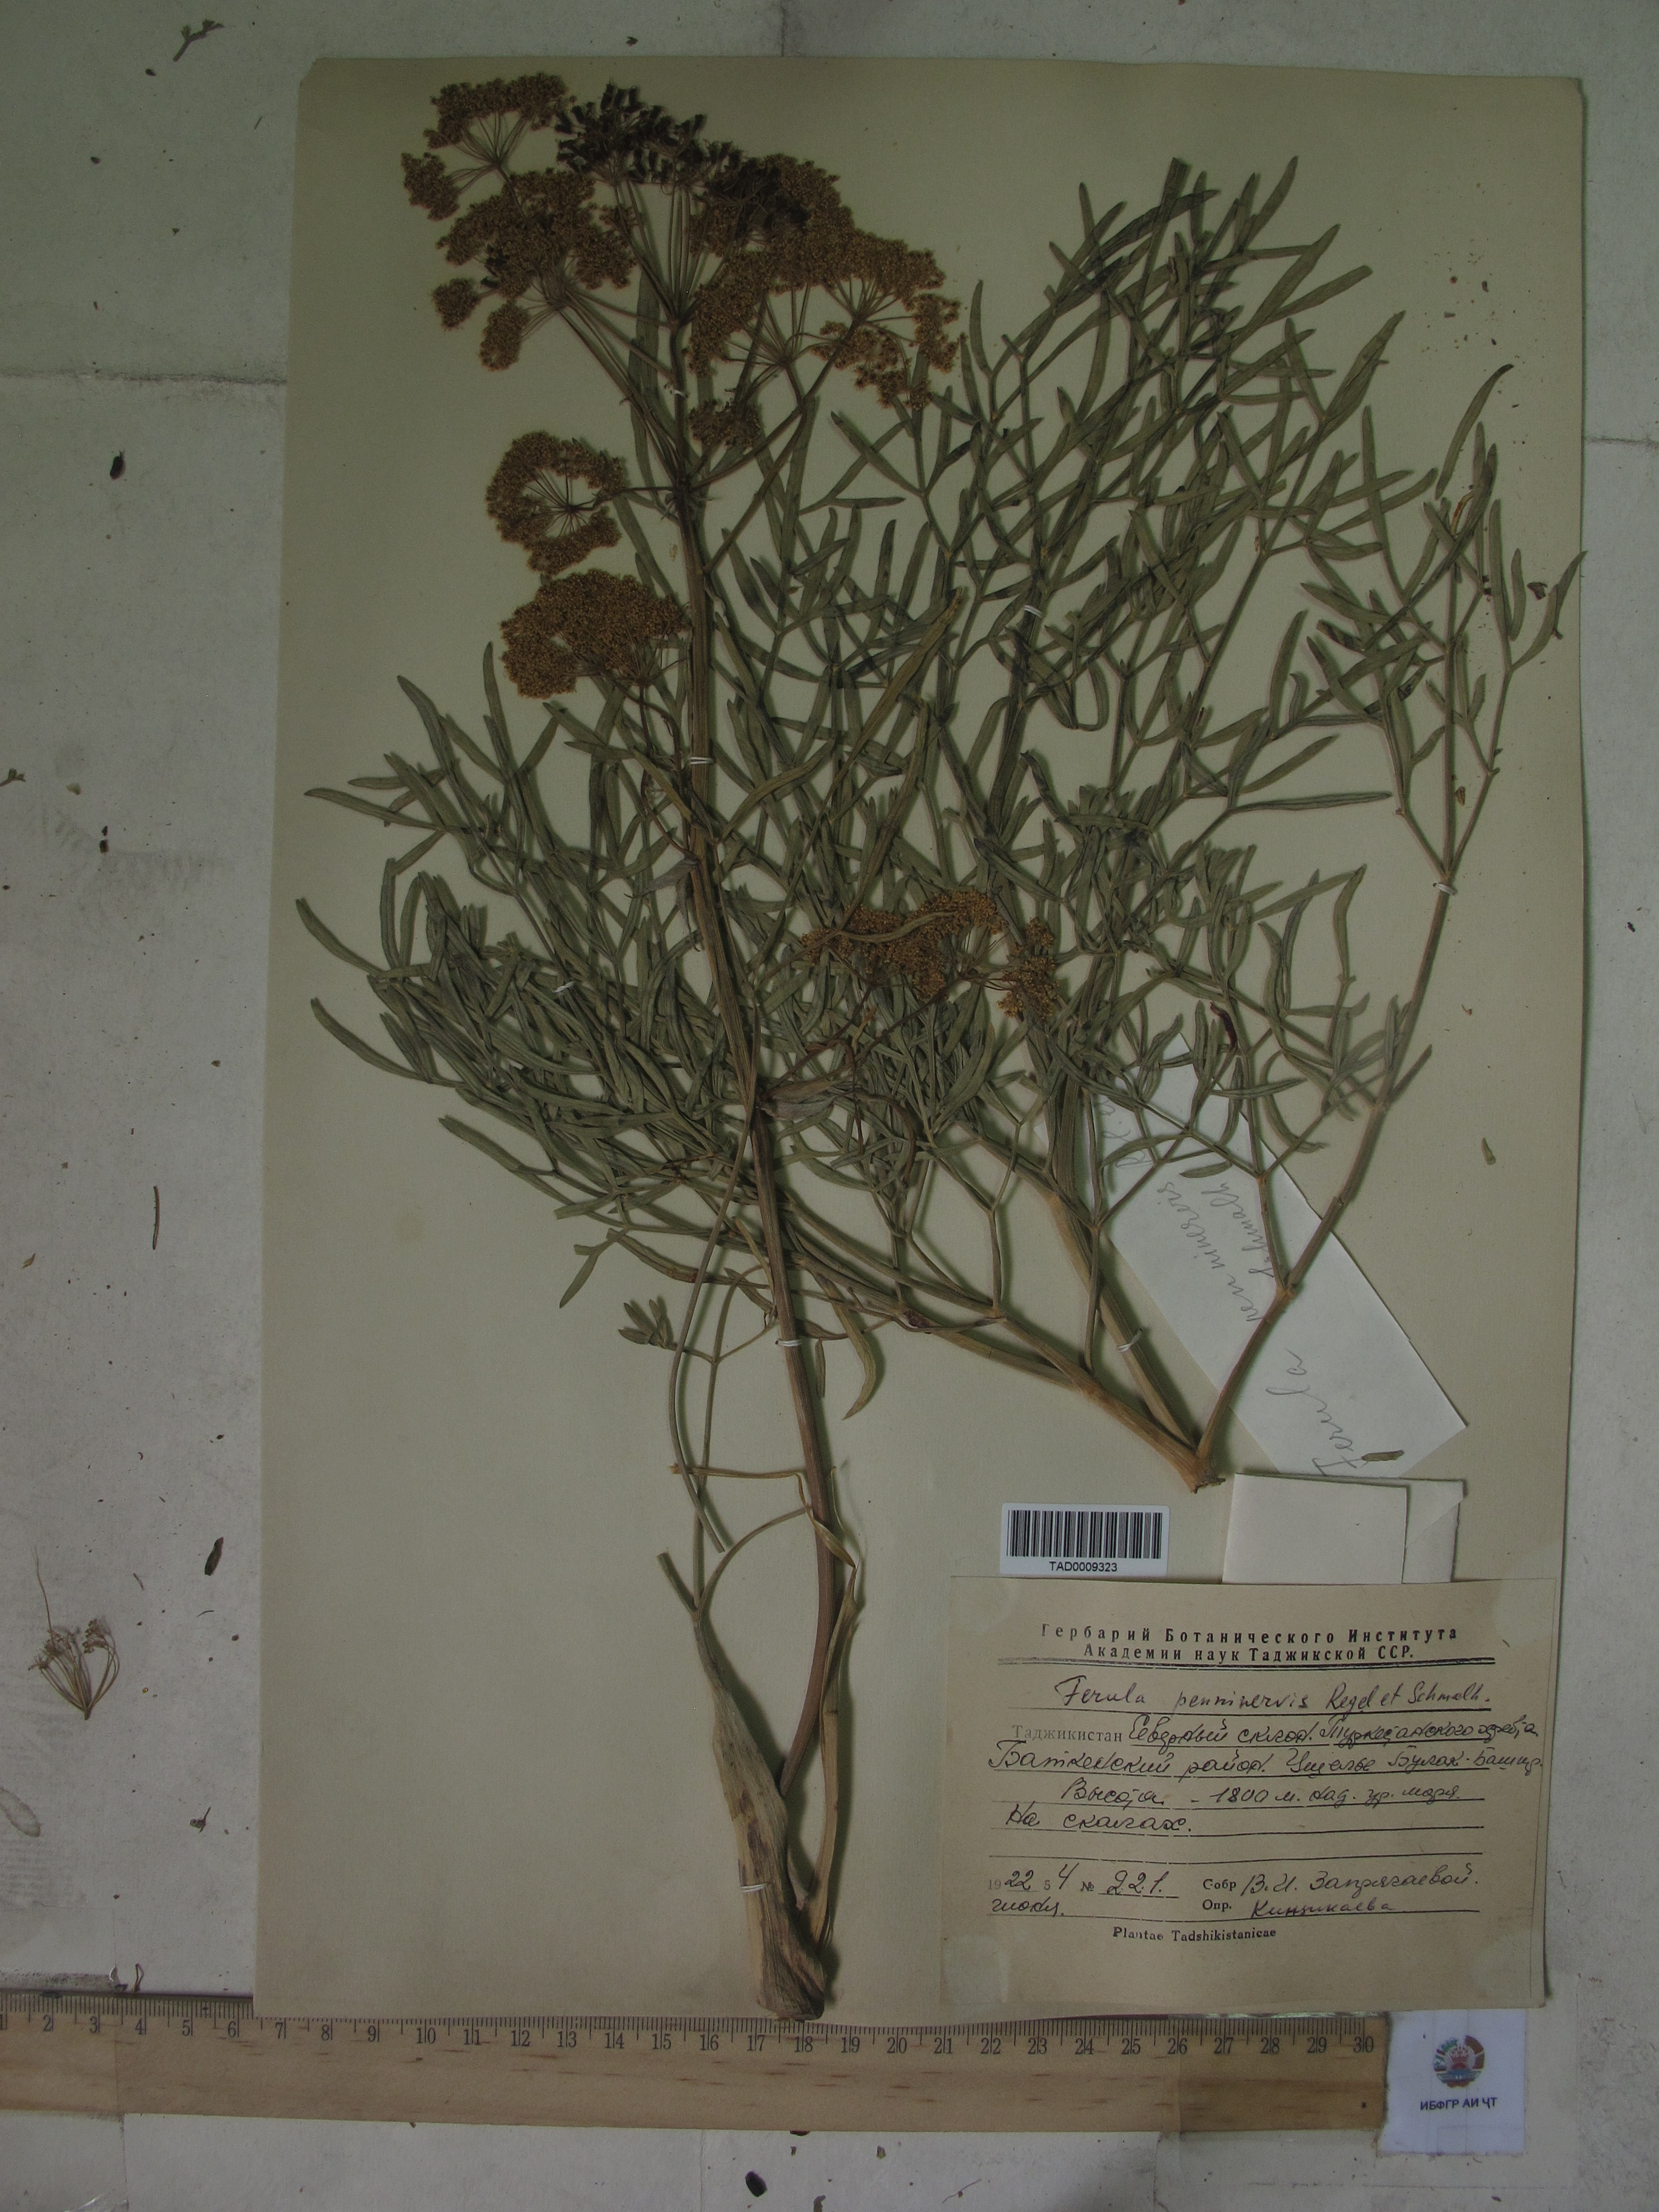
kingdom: Plantae
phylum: Tracheophyta
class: Magnoliopsida
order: Apiales
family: Apiaceae
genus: Ferula
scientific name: Ferula penninervis
